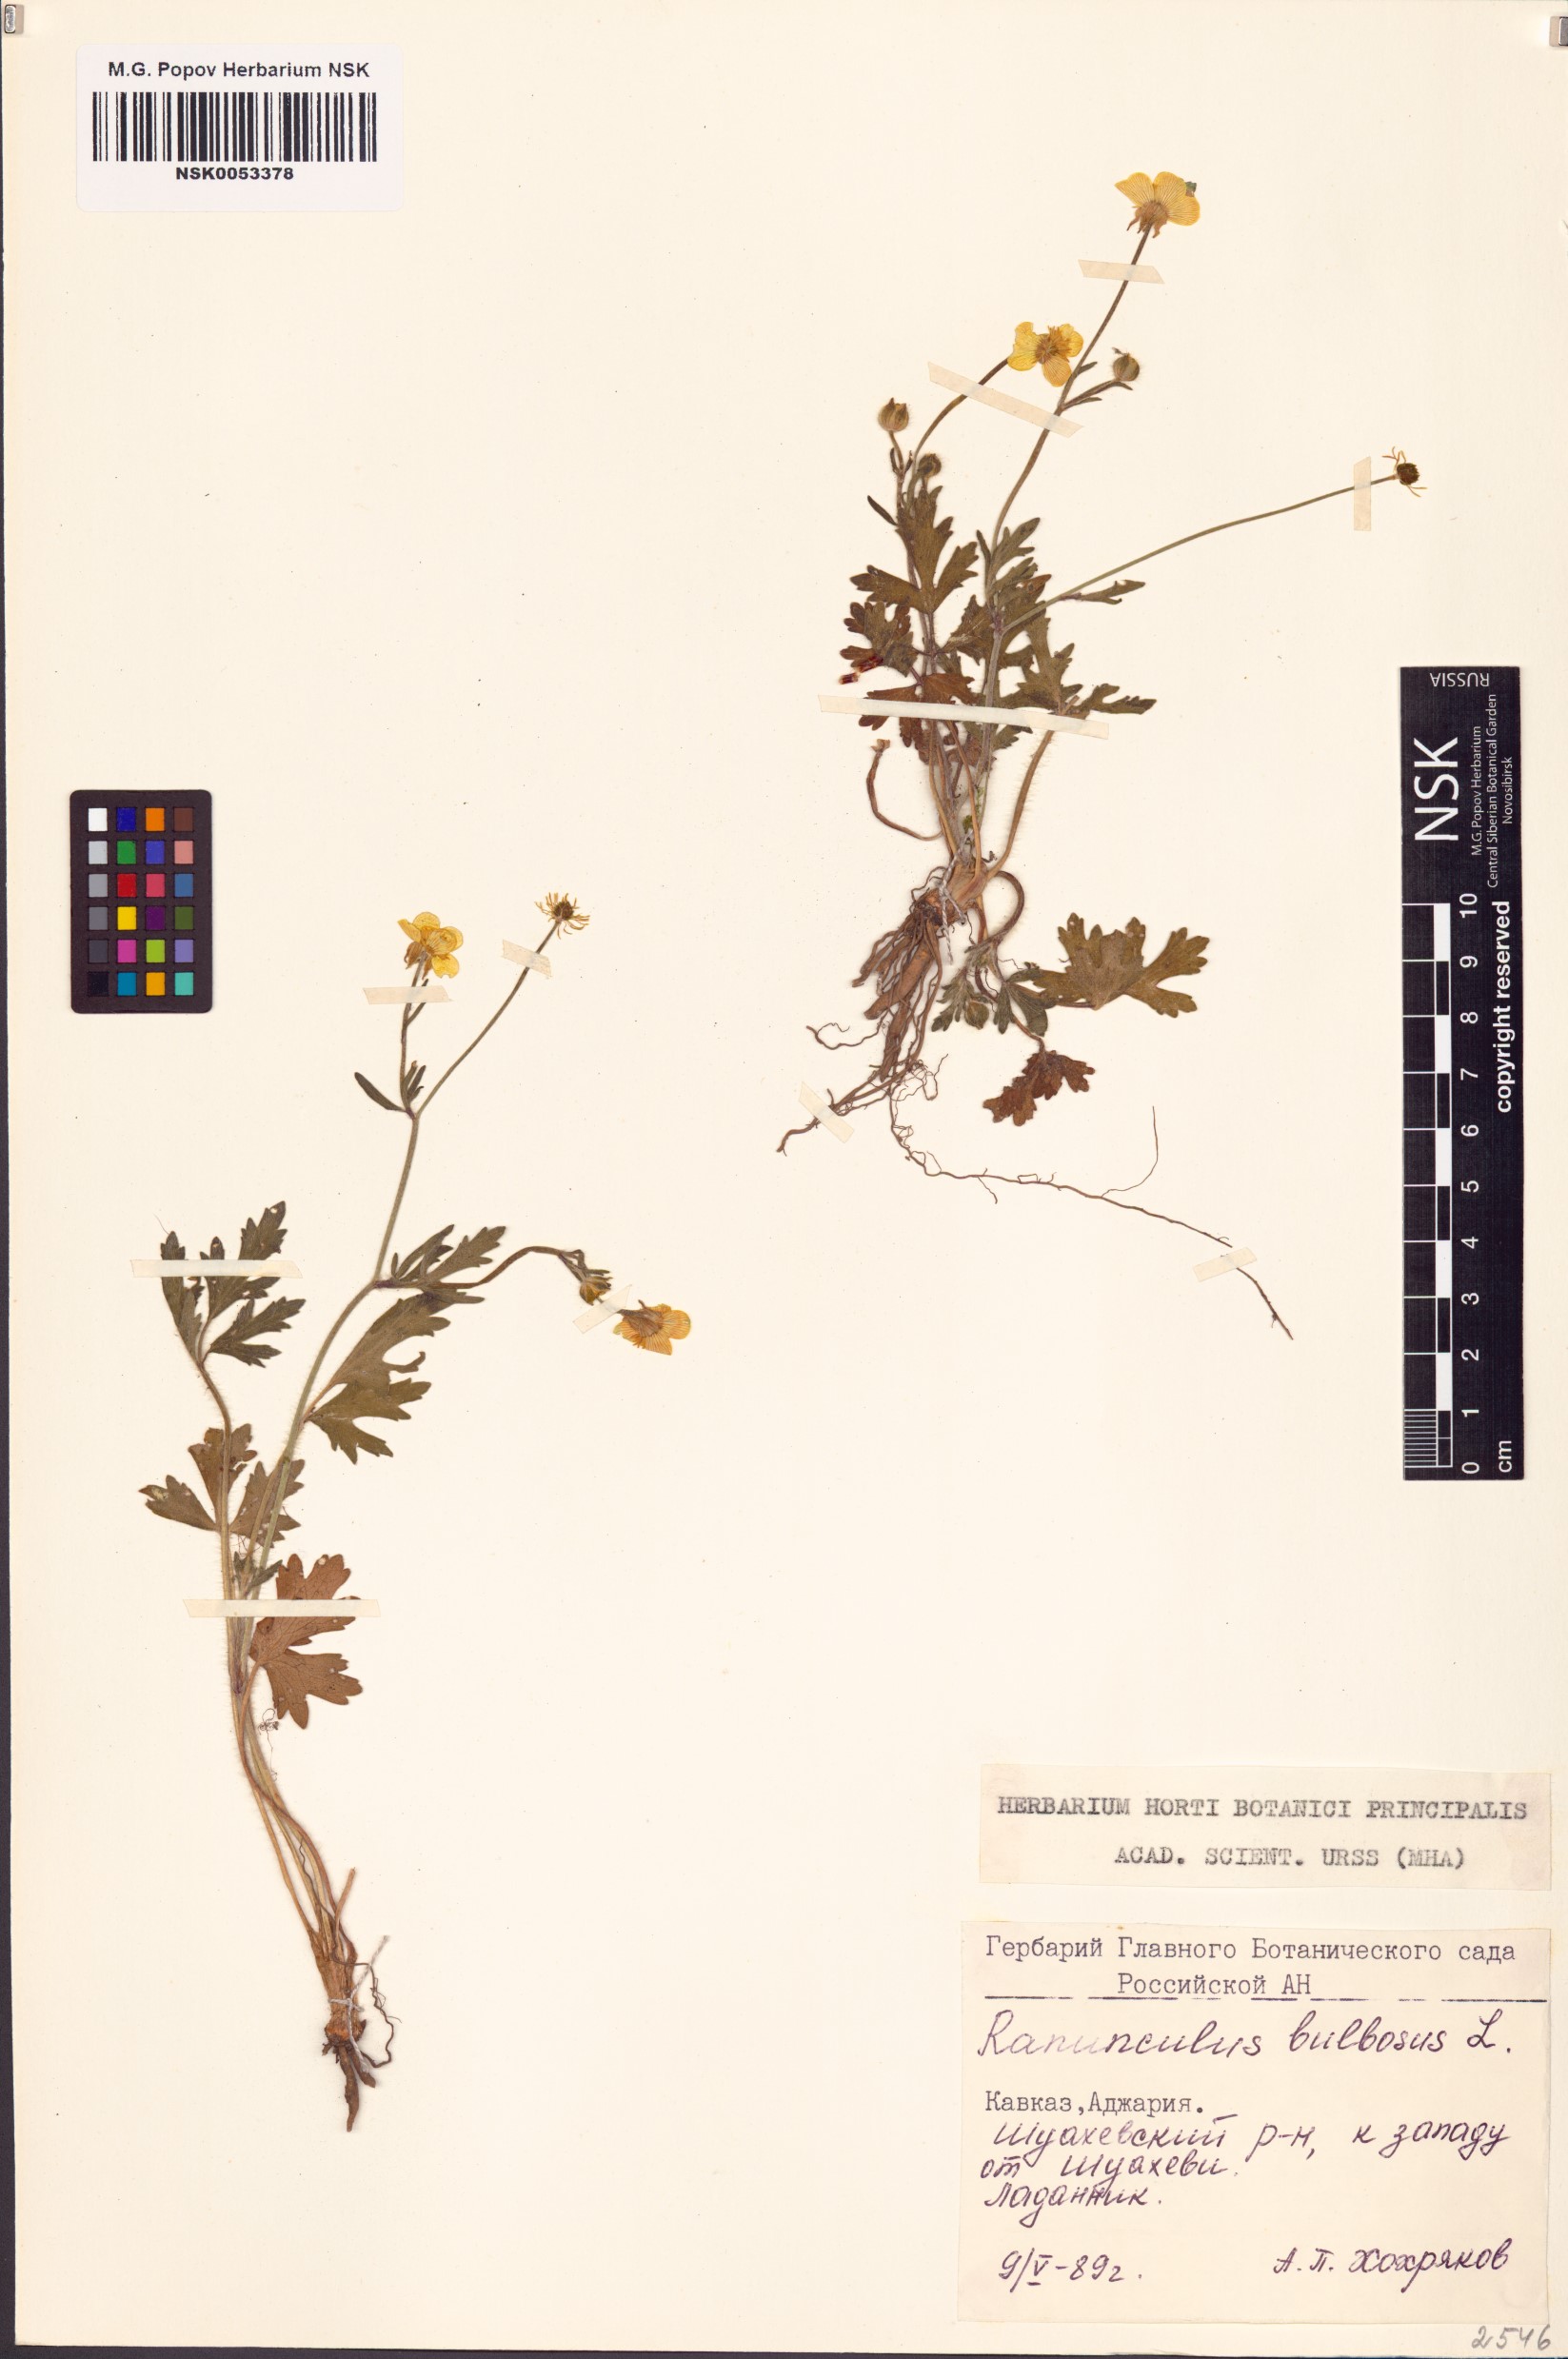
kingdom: Plantae
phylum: Tracheophyta
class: Magnoliopsida
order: Ranunculales
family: Ranunculaceae
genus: Ranunculus
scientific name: Ranunculus bulbosus
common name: Bulbous buttercup
